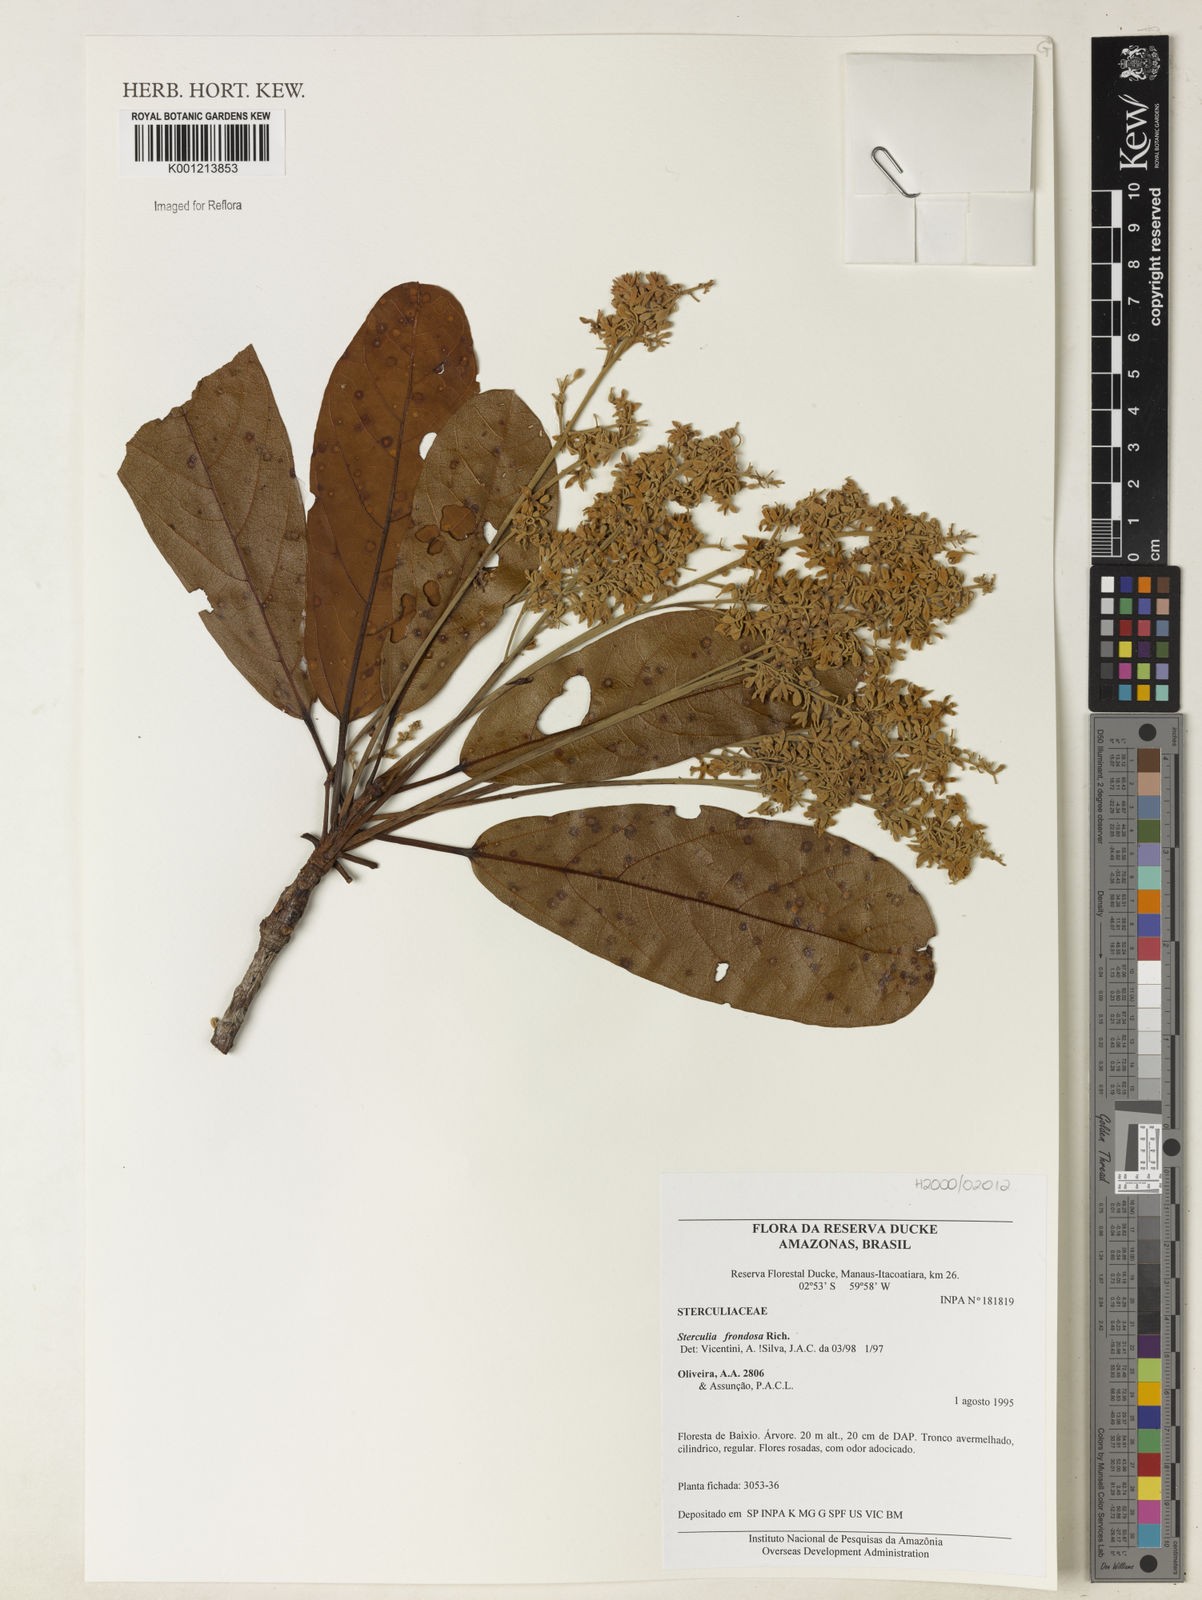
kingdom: Plantae
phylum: Tracheophyta
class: Magnoliopsida
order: Malvales
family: Malvaceae
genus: Sterculia
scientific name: Sterculia frondosa
